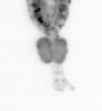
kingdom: Animalia
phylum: Arthropoda
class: Copepoda
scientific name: Copepoda
